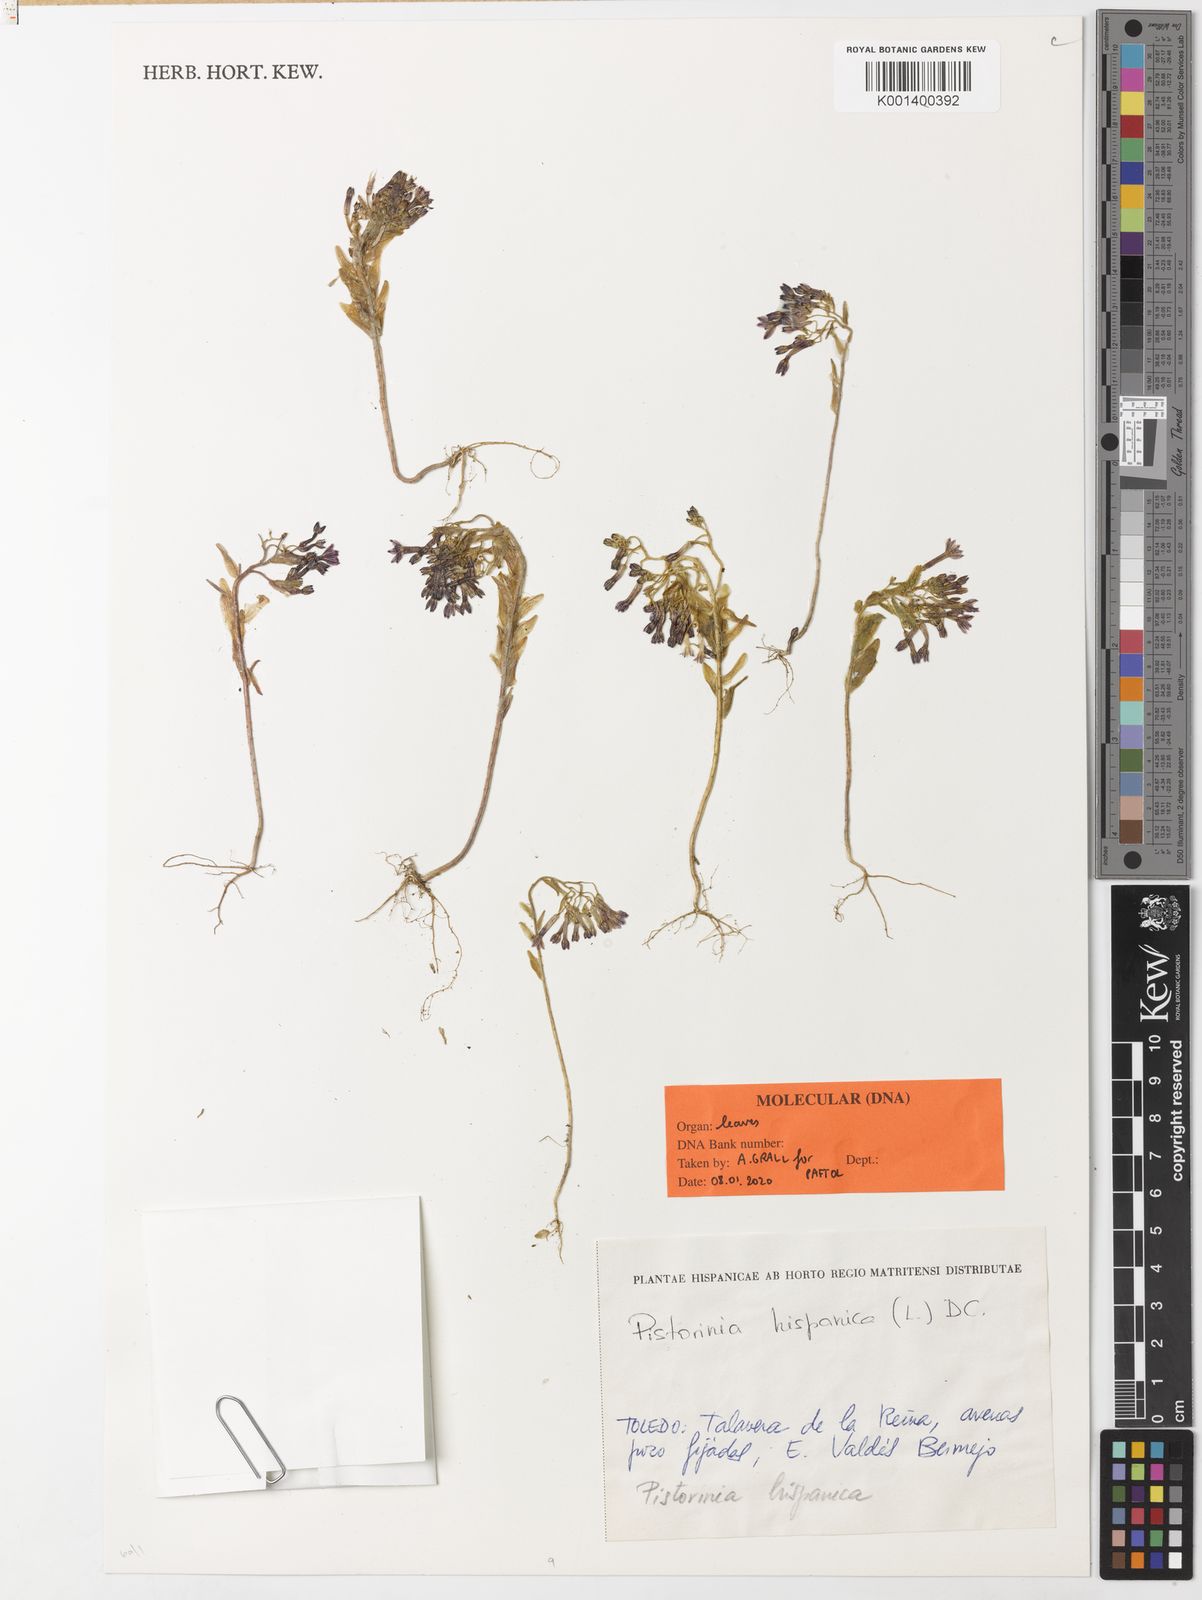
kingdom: Plantae
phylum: Tracheophyta
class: Magnoliopsida
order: Saxifragales
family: Crassulaceae
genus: Pistorinia
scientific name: Pistorinia hispanica
